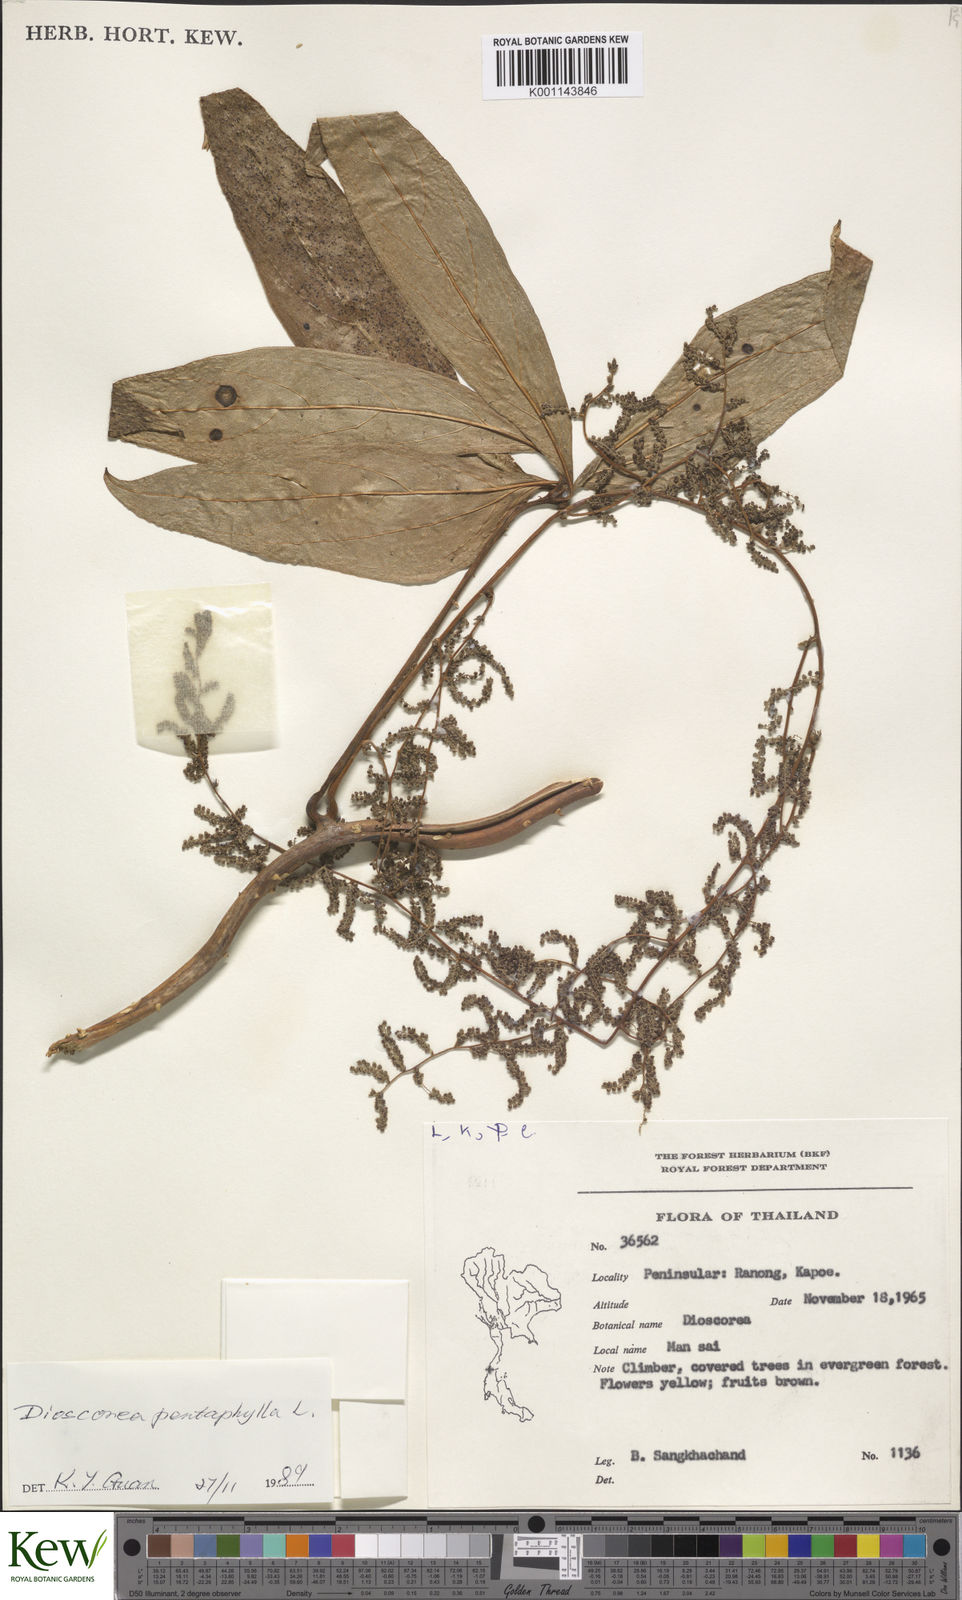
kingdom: Plantae
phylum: Tracheophyta
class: Liliopsida
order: Dioscoreales
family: Dioscoreaceae
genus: Dioscorea
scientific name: Dioscorea pentaphylla
